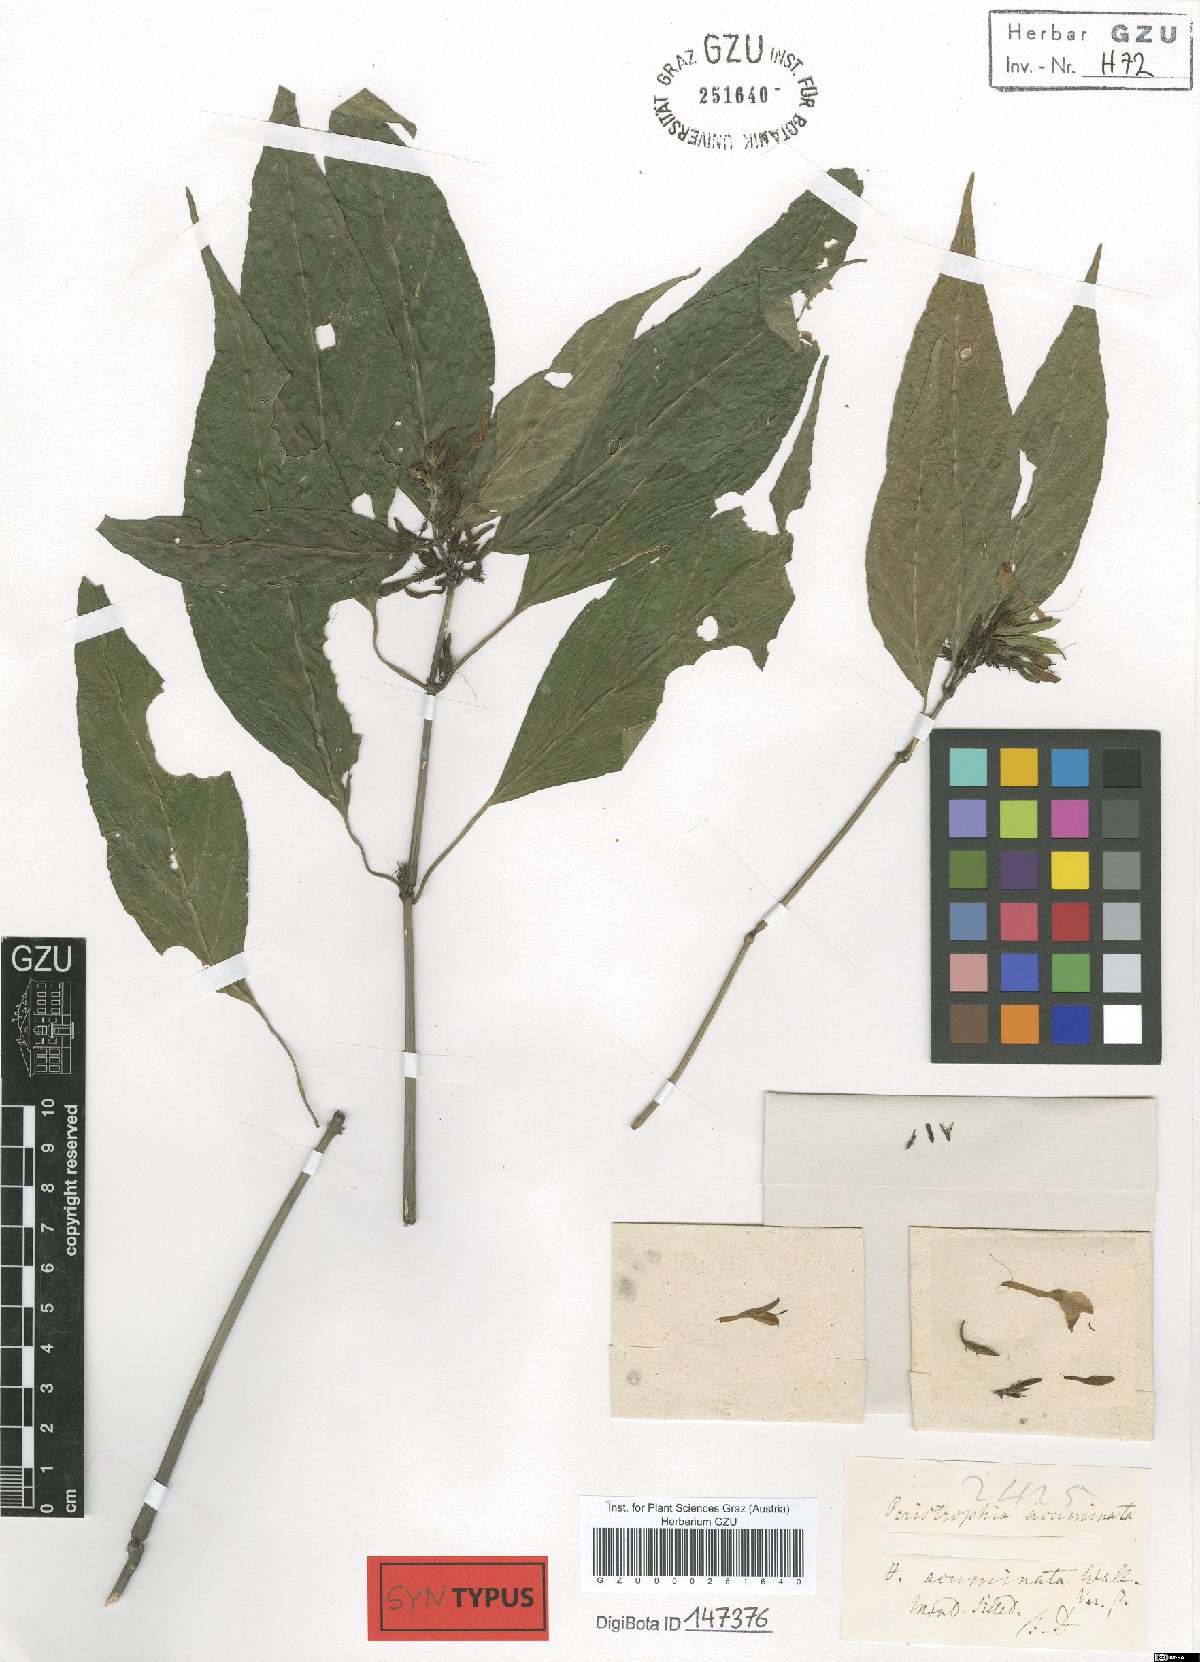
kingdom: Plantae
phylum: Tracheophyta
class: Magnoliopsida
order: Lamiales
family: Acanthaceae
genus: Dicliptera
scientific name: Dicliptera sebastinei
